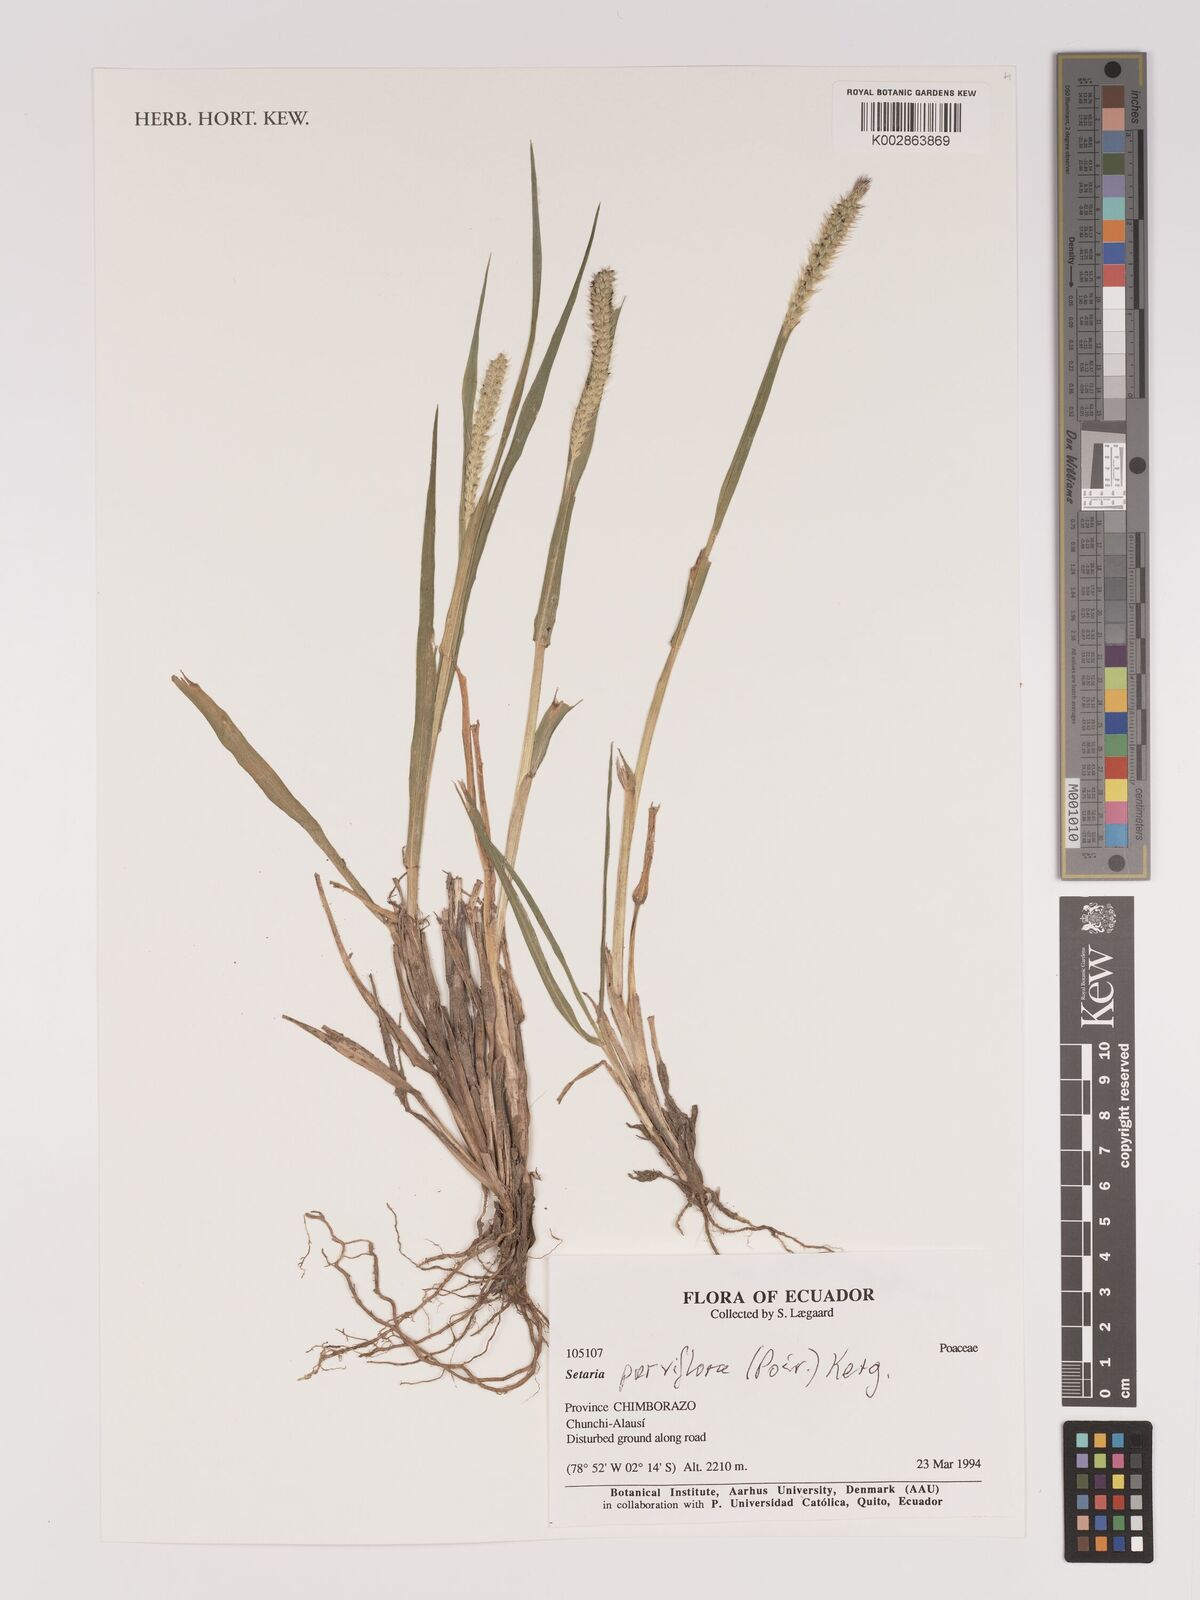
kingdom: Plantae
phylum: Tracheophyta
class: Liliopsida
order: Poales
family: Poaceae
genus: Setaria
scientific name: Setaria parviflora
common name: Knotroot bristle-grass
